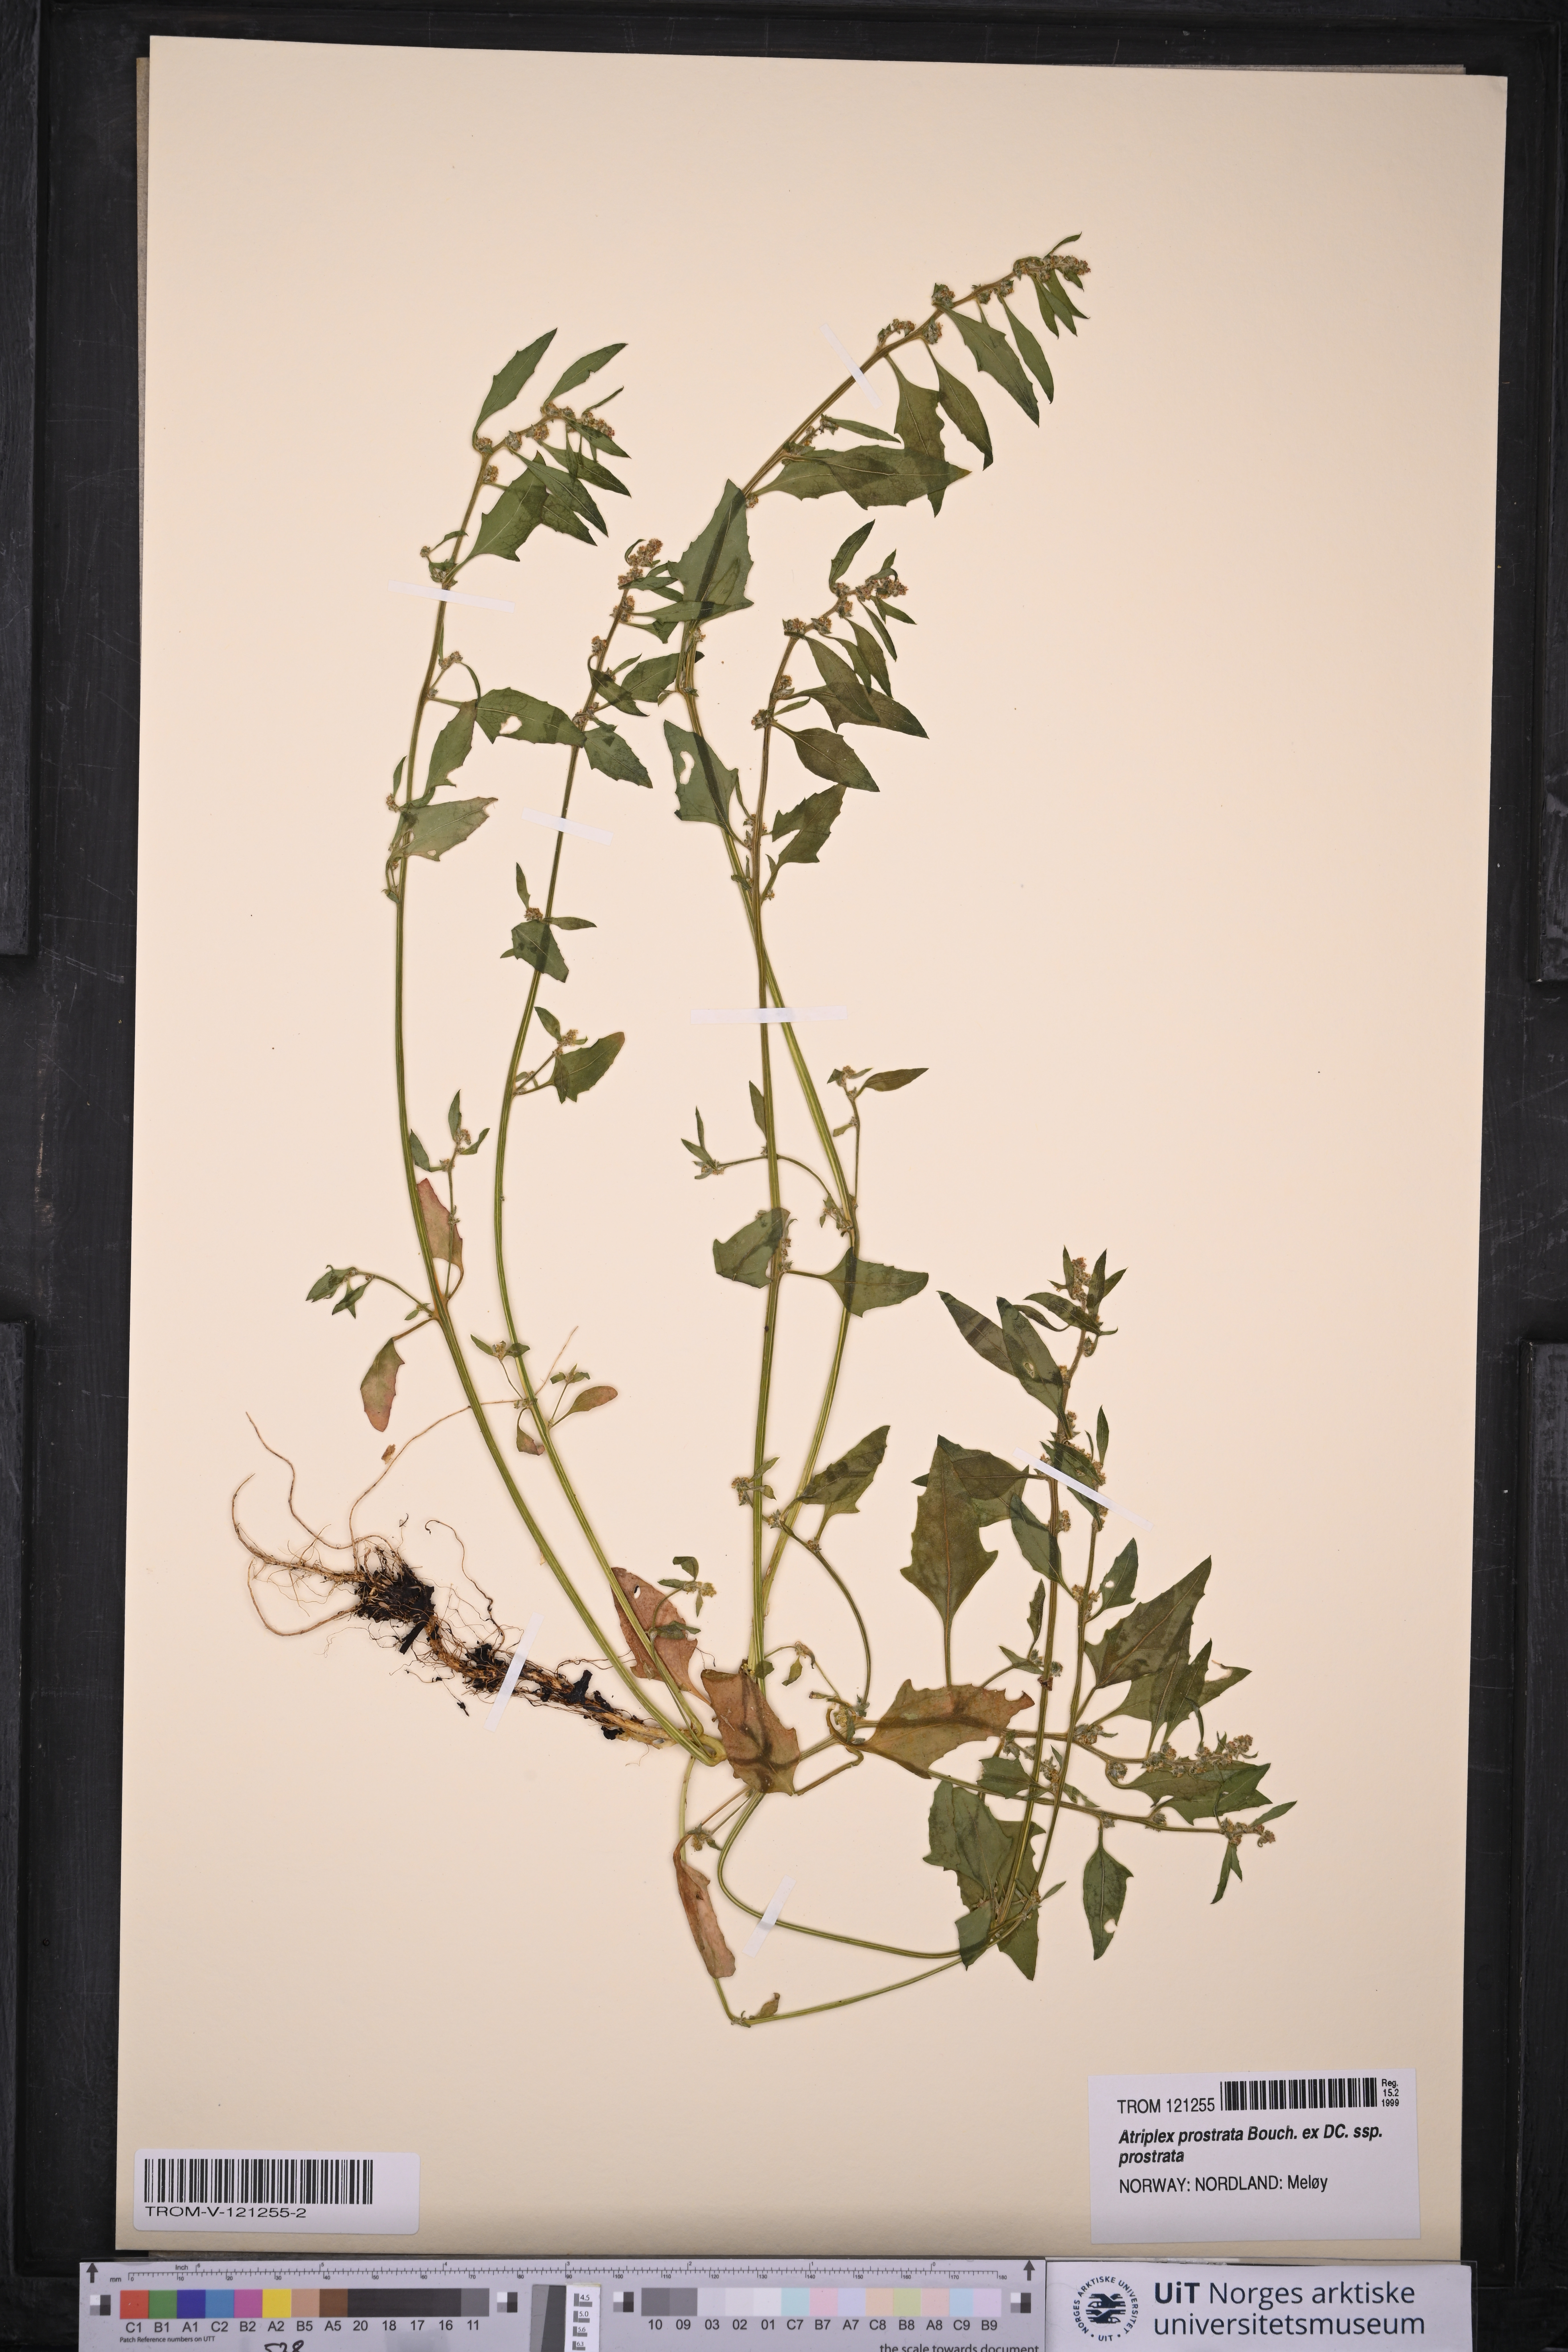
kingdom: Plantae
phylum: Tracheophyta
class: Magnoliopsida
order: Caryophyllales
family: Amaranthaceae
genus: Atriplex
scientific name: Atriplex prostrata
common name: Spear-leaved orache
